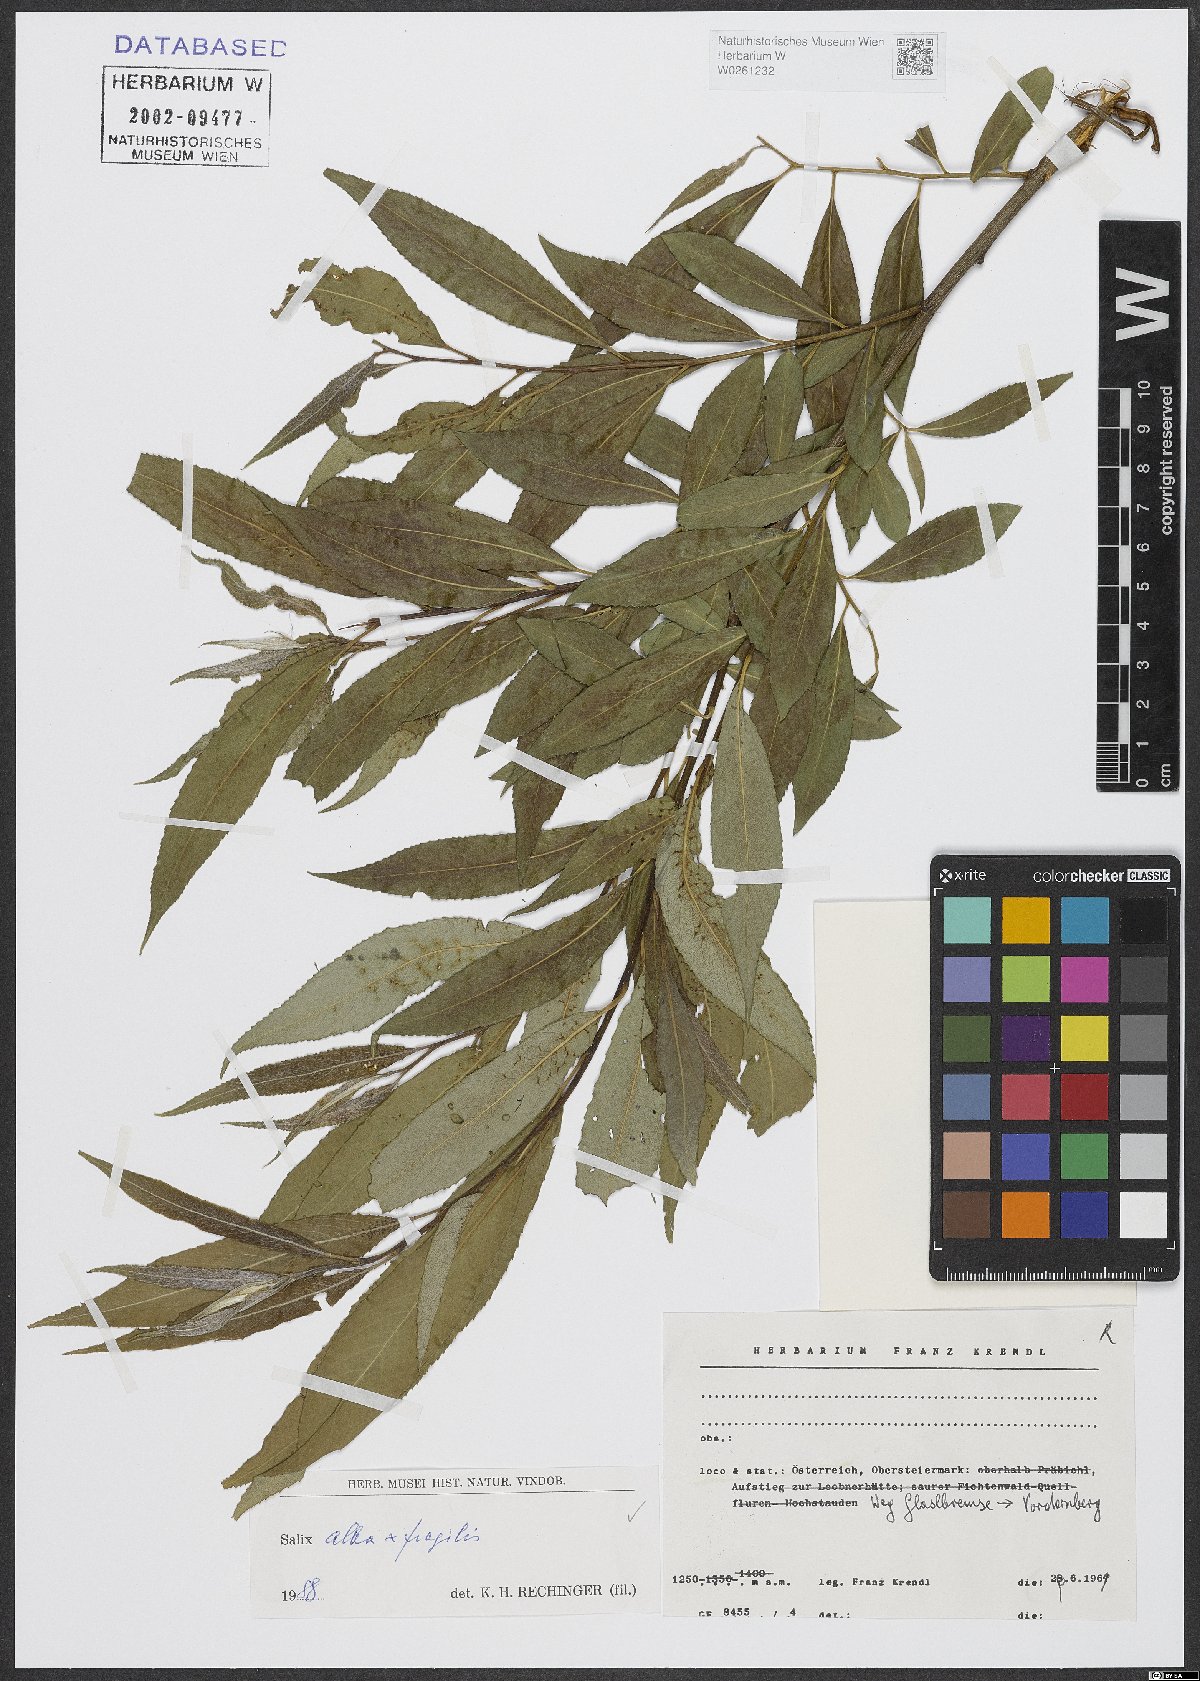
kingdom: Plantae
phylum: Tracheophyta
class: Magnoliopsida
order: Malpighiales
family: Salicaceae
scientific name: Salicaceae
